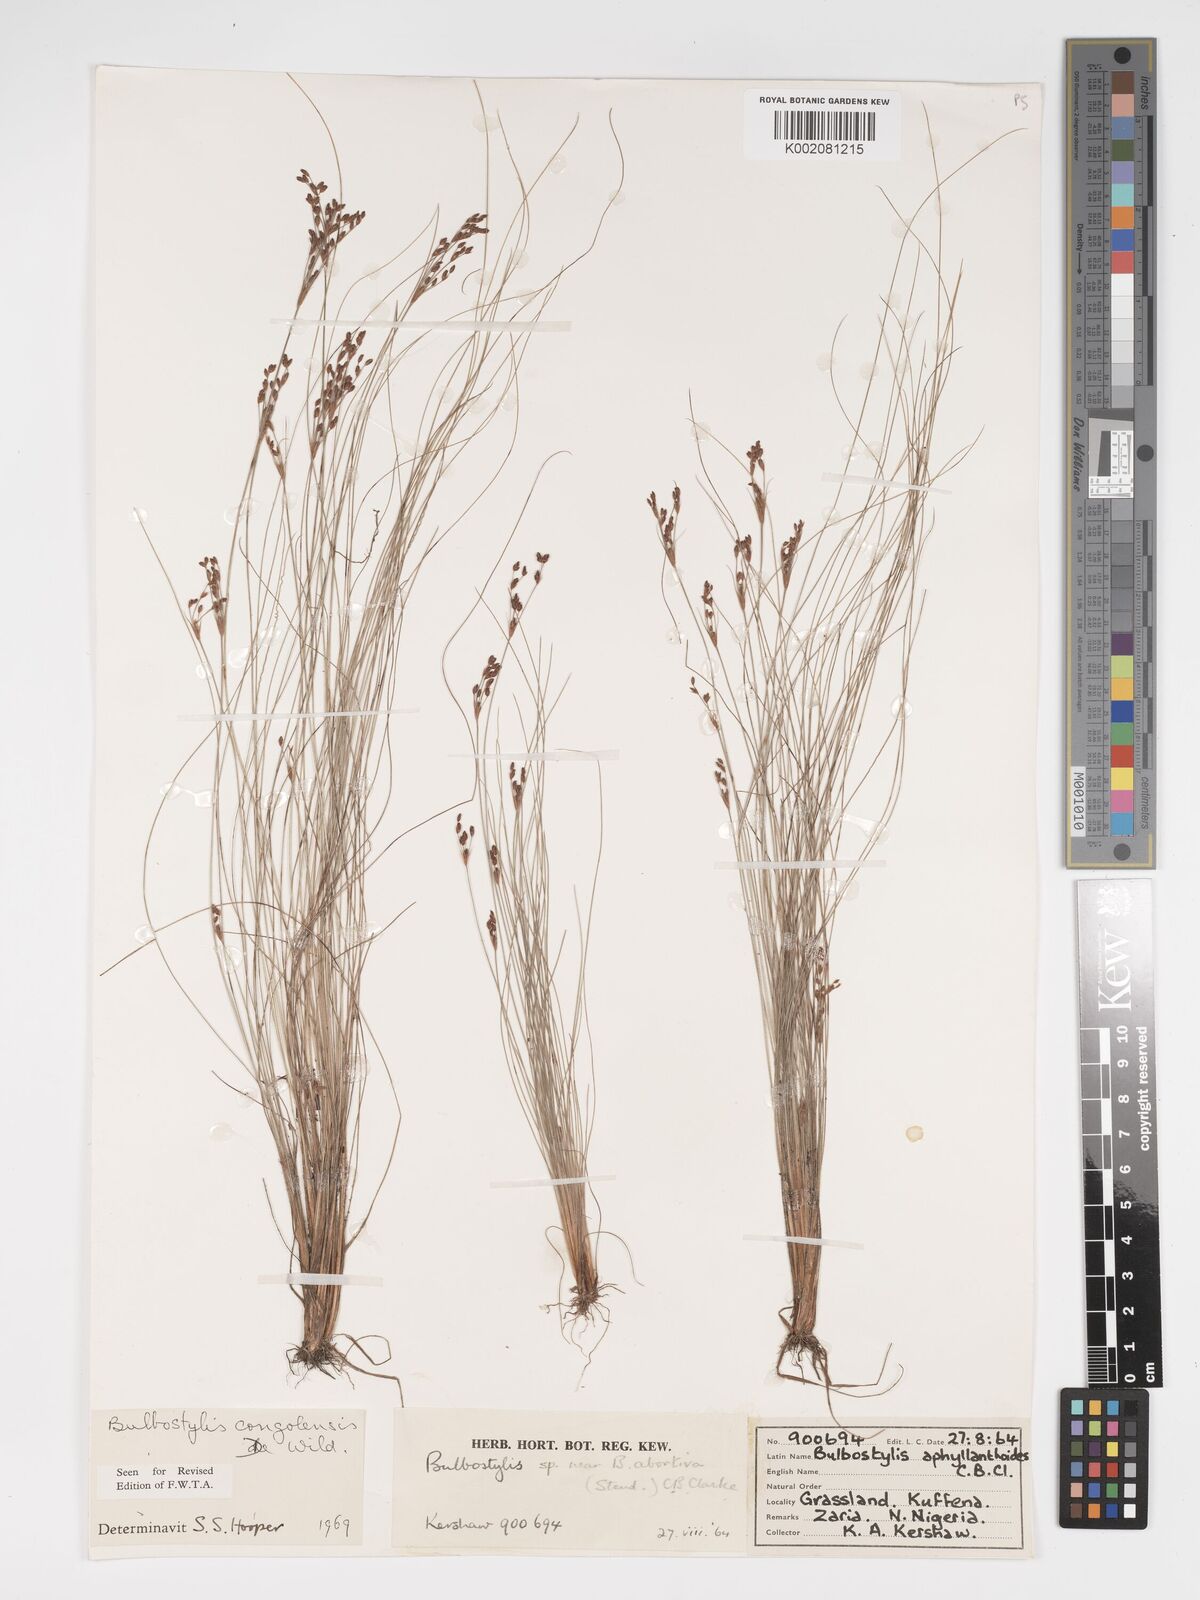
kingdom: Plantae
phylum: Tracheophyta
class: Liliopsida
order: Poales
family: Cyperaceae
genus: Bulbostylis
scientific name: Bulbostylis congolensis
